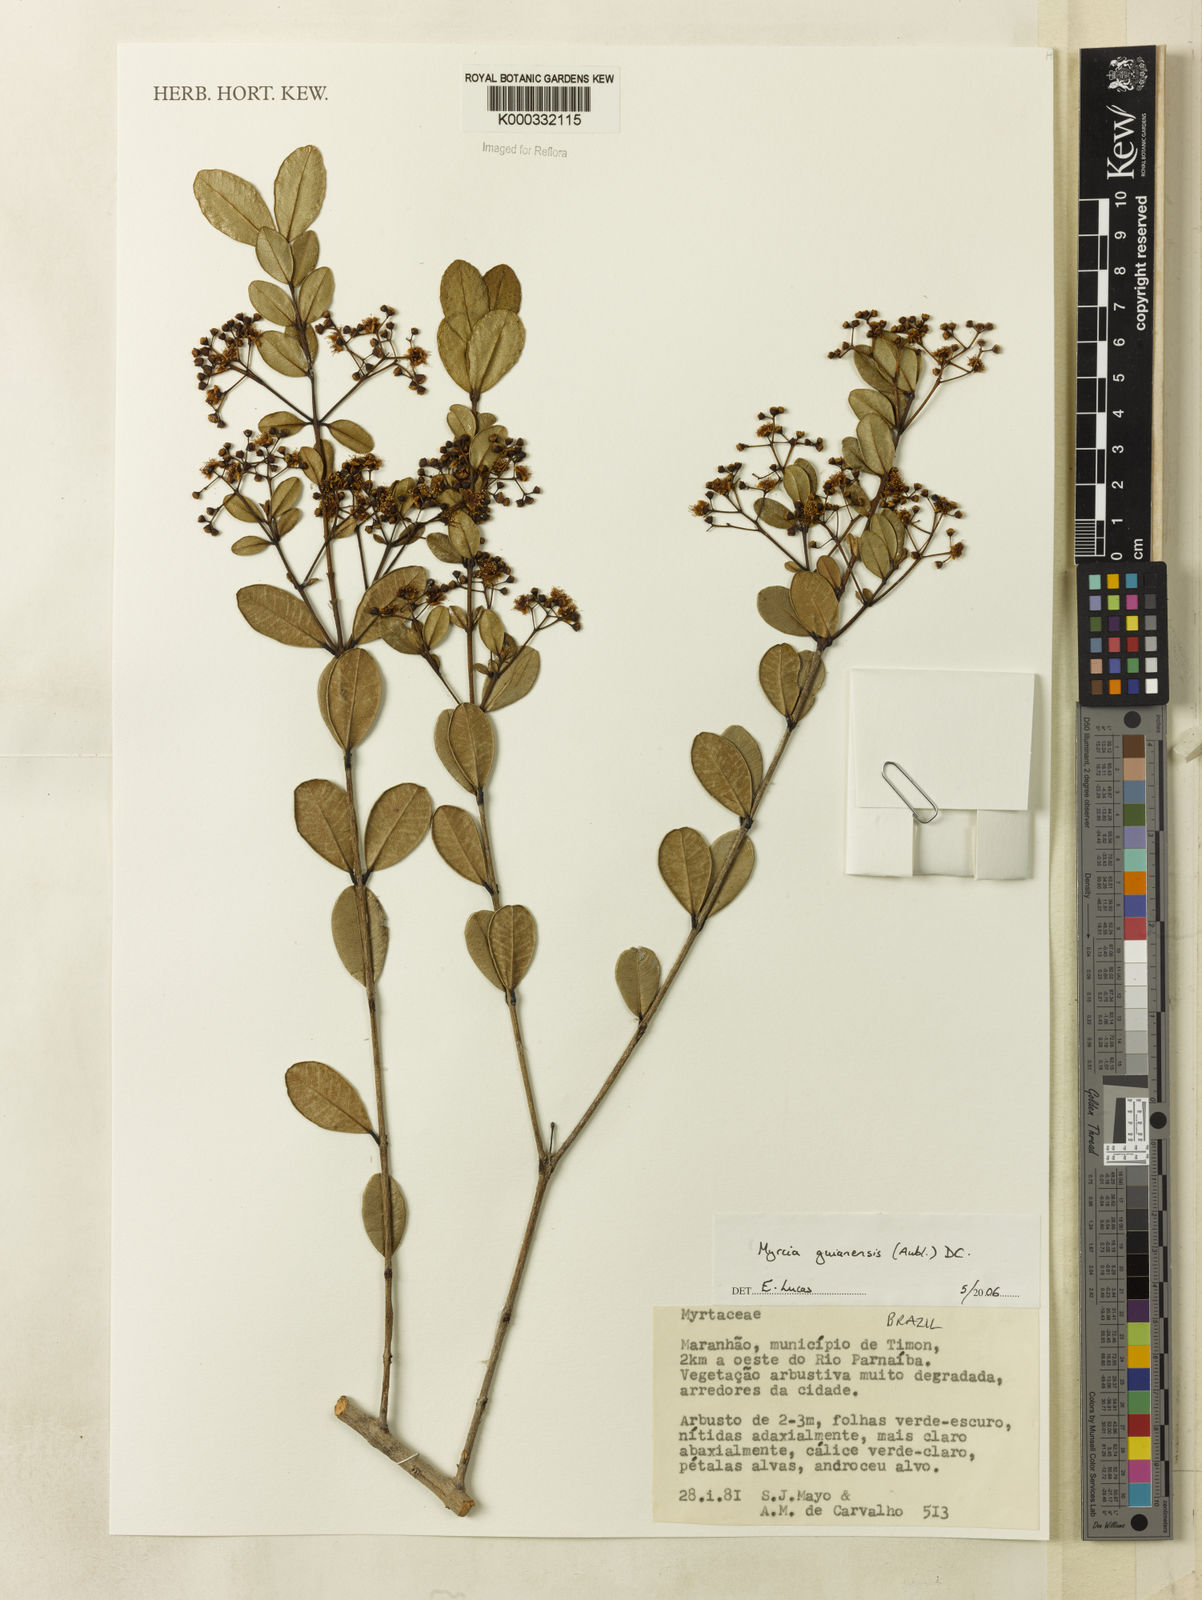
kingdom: Plantae
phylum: Tracheophyta
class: Magnoliopsida
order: Myrtales
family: Myrtaceae
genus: Myrcia
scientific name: Myrcia guianensis
